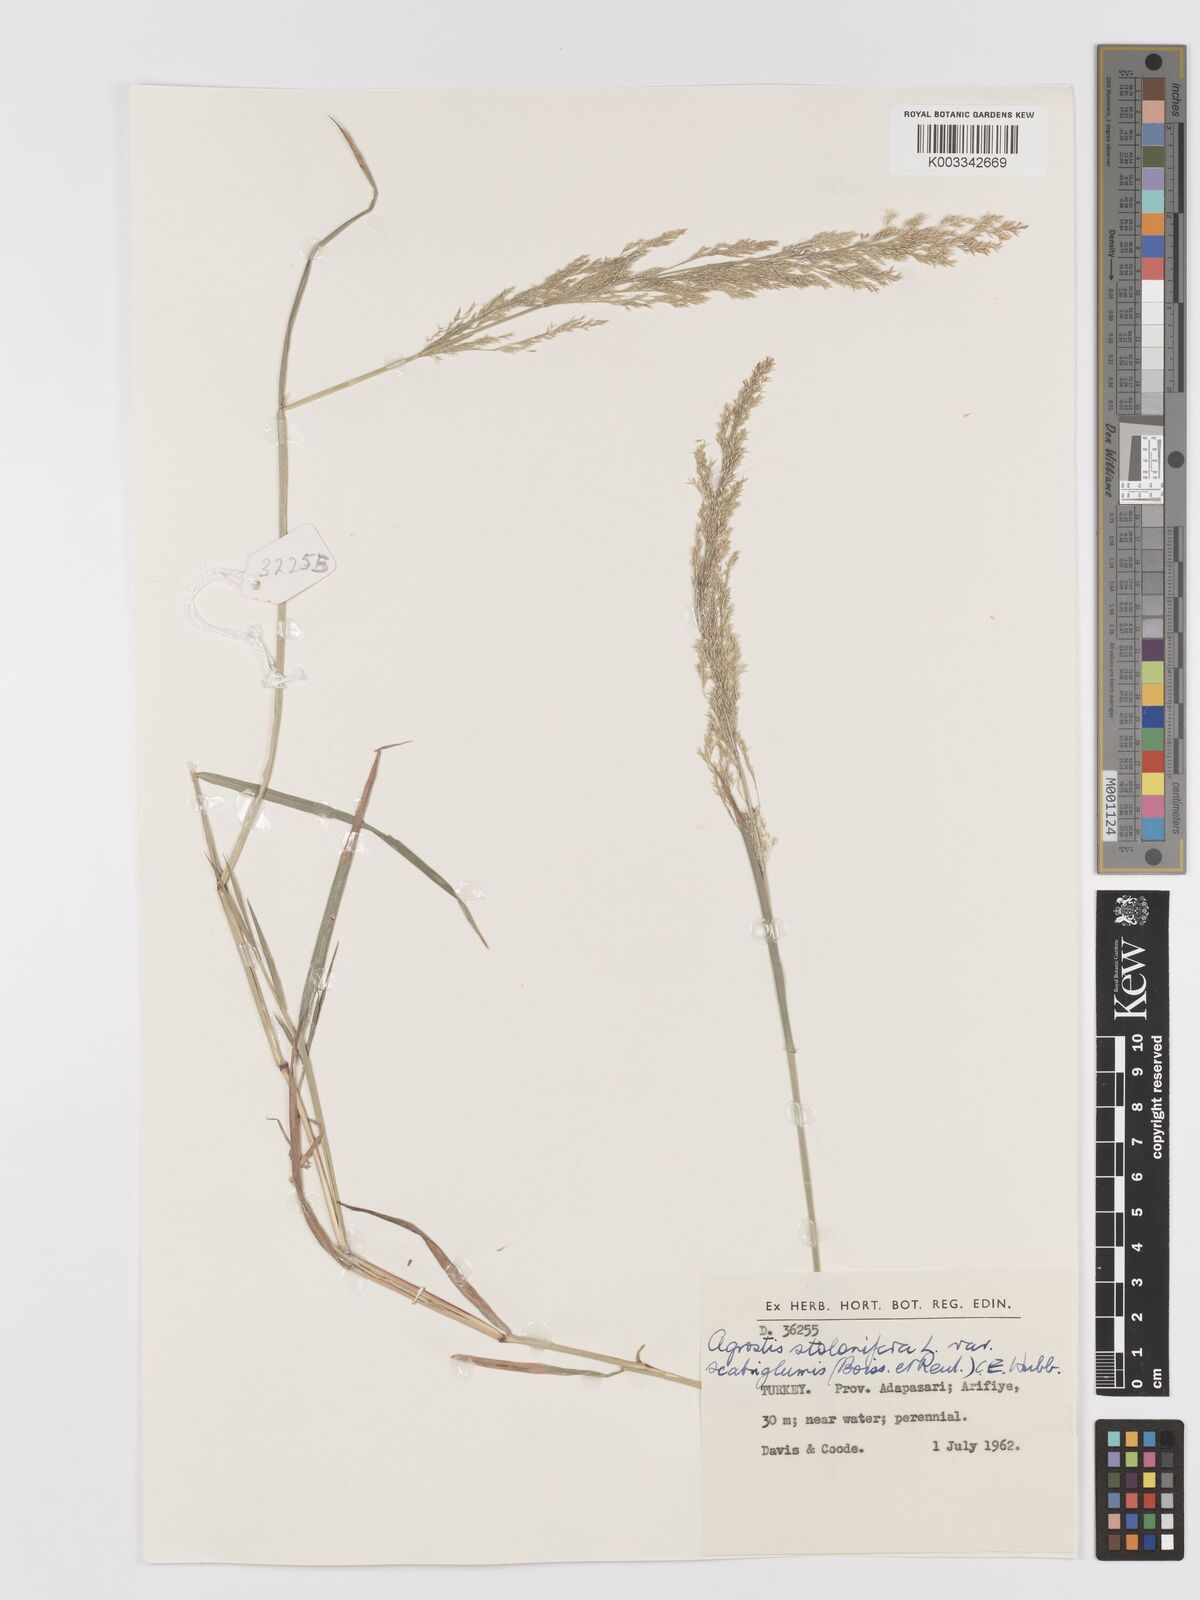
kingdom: Plantae
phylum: Tracheophyta
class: Liliopsida
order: Poales
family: Poaceae
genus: Agrostis
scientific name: Agrostis gigantea
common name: Black bent
